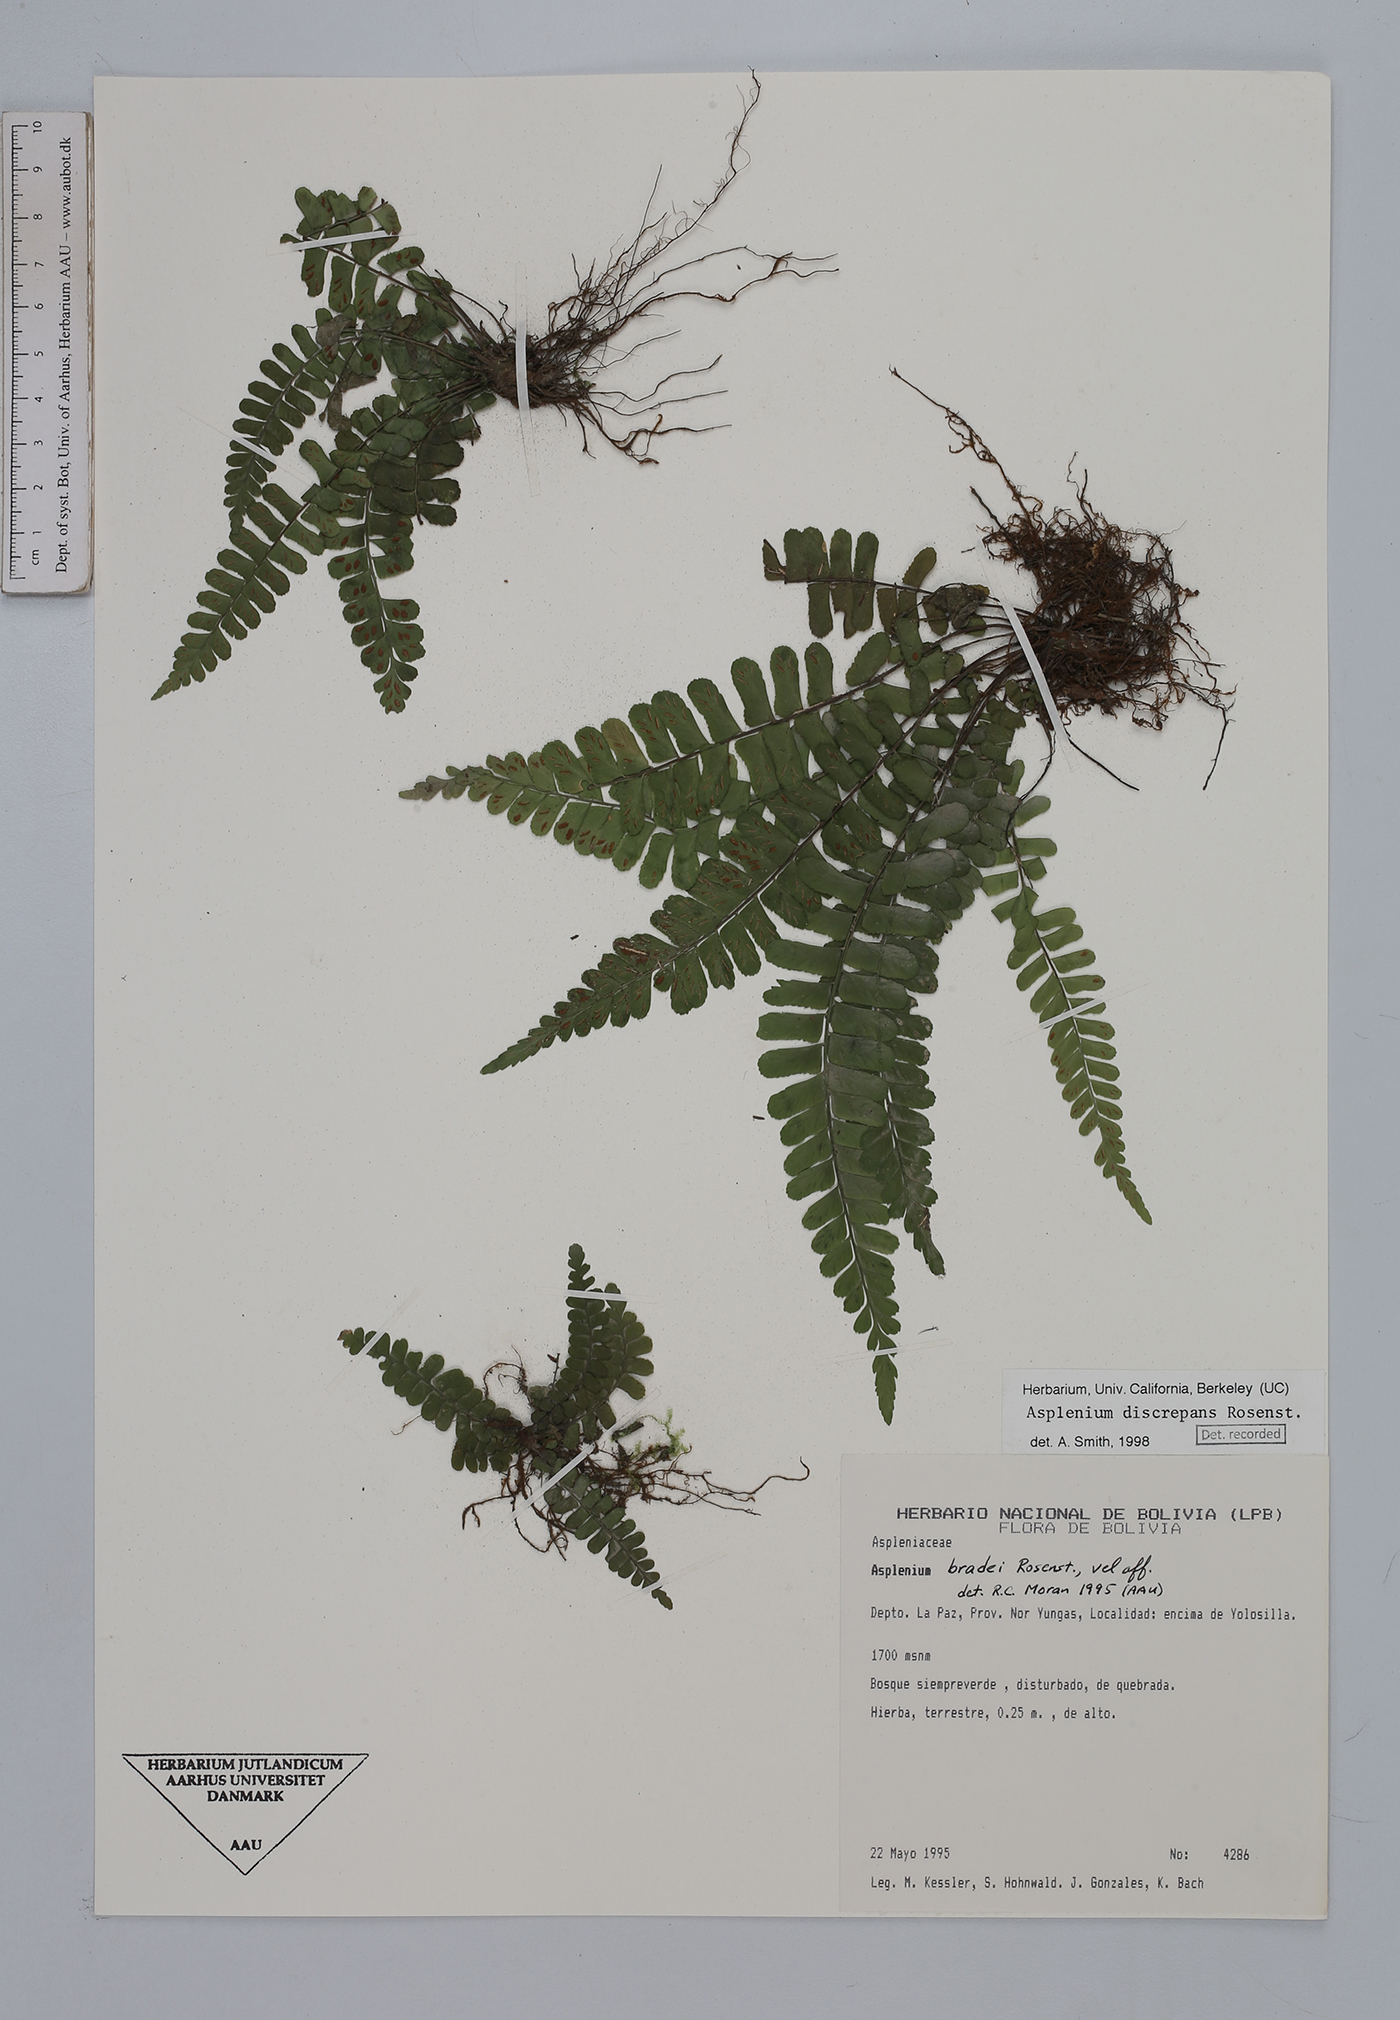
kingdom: Plantae
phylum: Tracheophyta
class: Polypodiopsida
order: Polypodiales
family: Aspleniaceae
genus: Asplenium
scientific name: Asplenium discrepans
